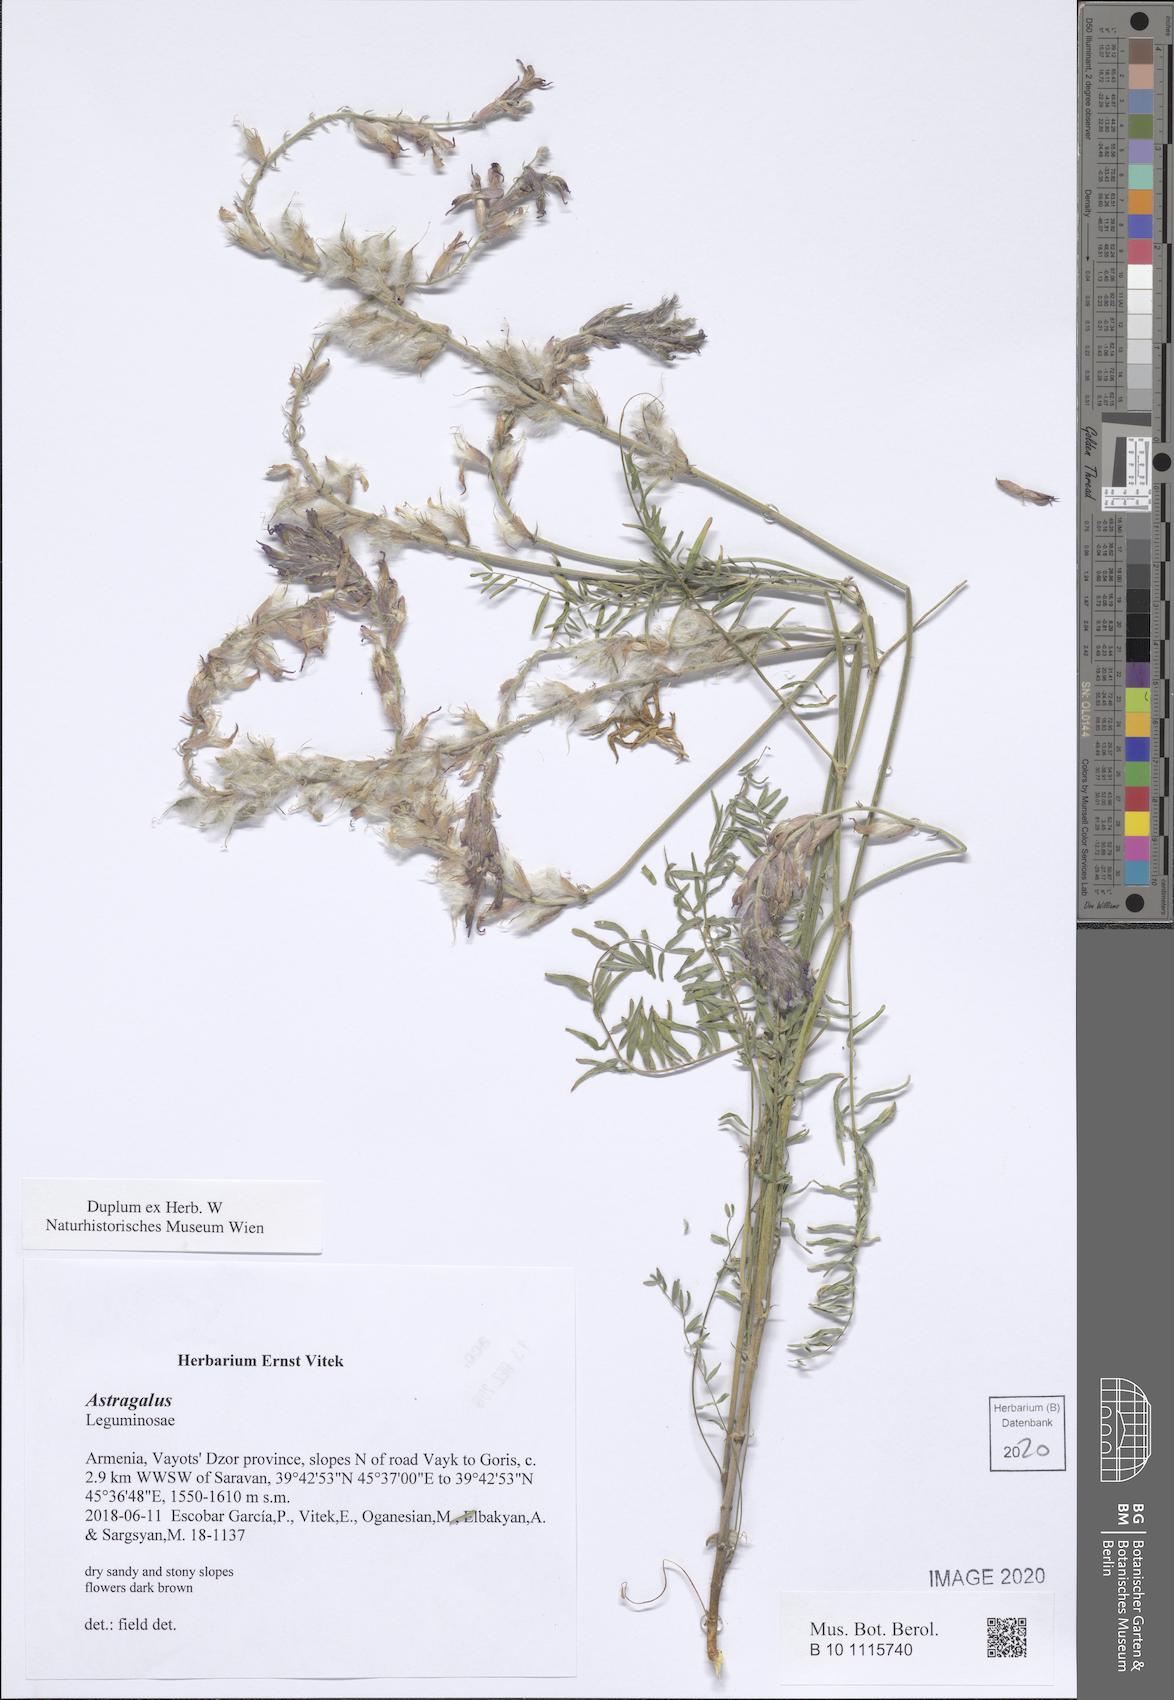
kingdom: Plantae
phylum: Tracheophyta
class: Magnoliopsida
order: Fabales
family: Fabaceae
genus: Astragalus
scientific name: Astragalus
